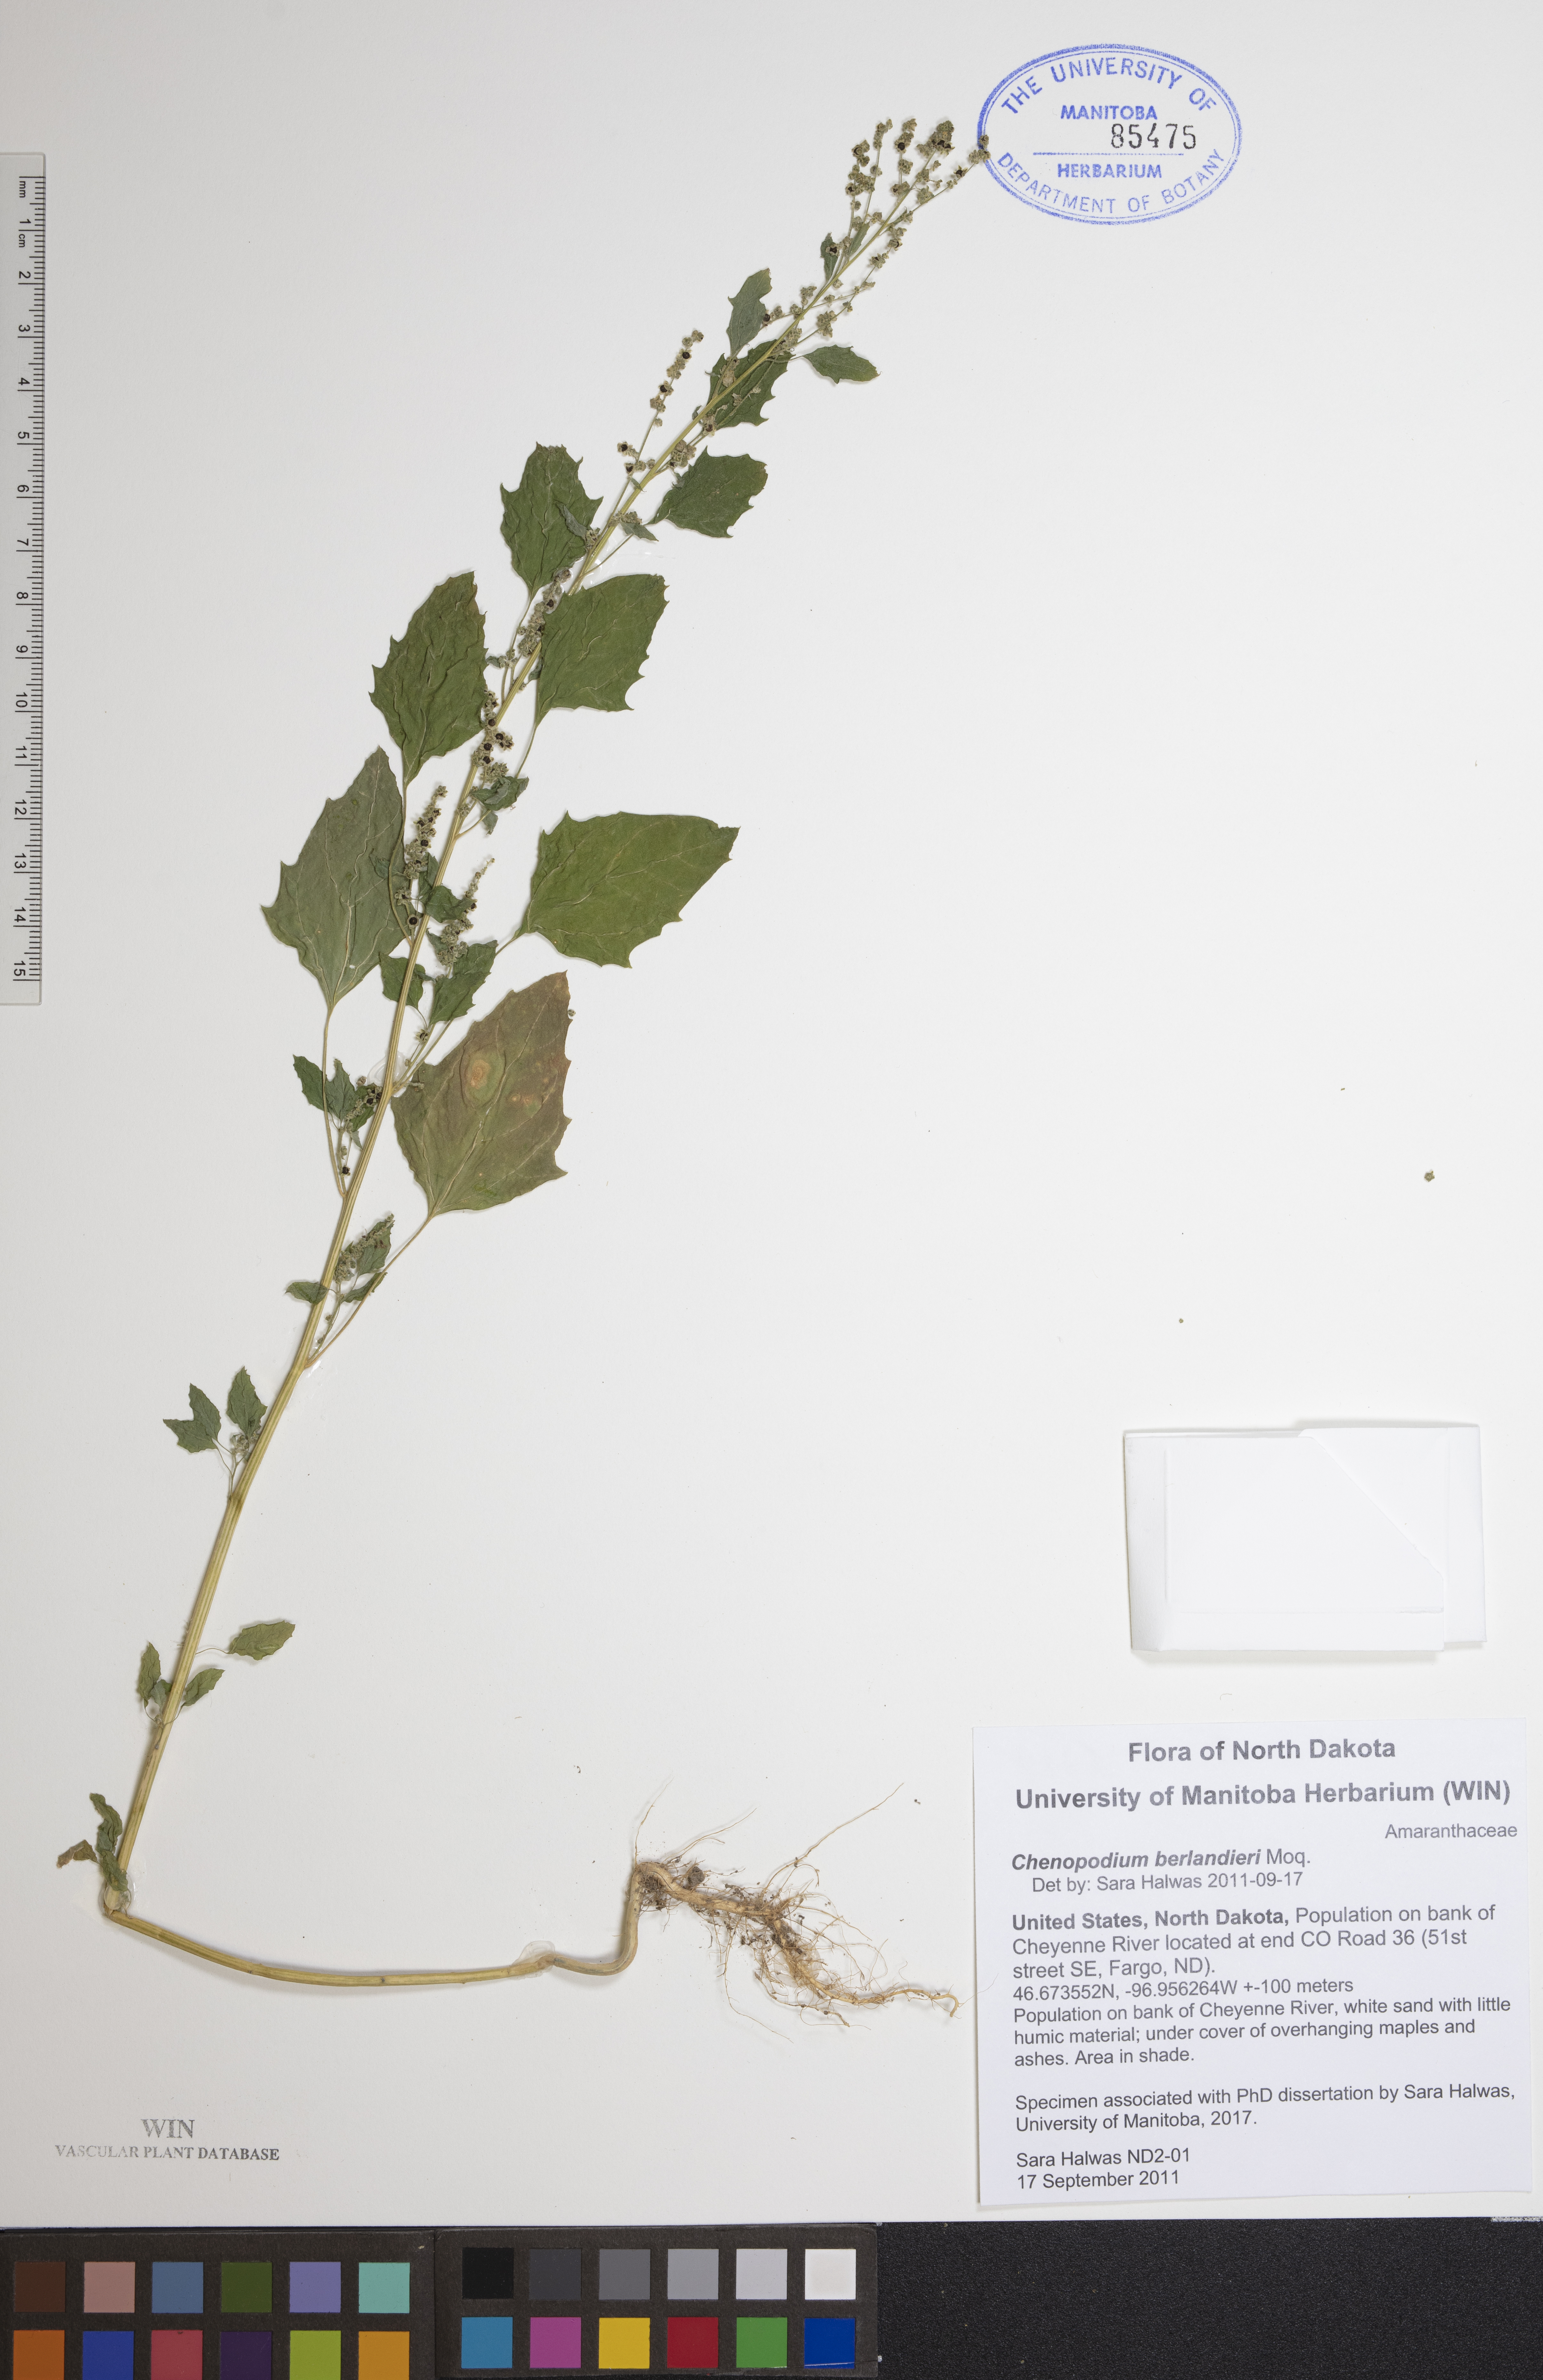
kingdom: Plantae
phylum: Tracheophyta
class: Magnoliopsida
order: Caryophyllales
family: Amaranthaceae
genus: Chenopodium
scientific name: Chenopodium berlandieri
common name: Pit-seed goosefoot
